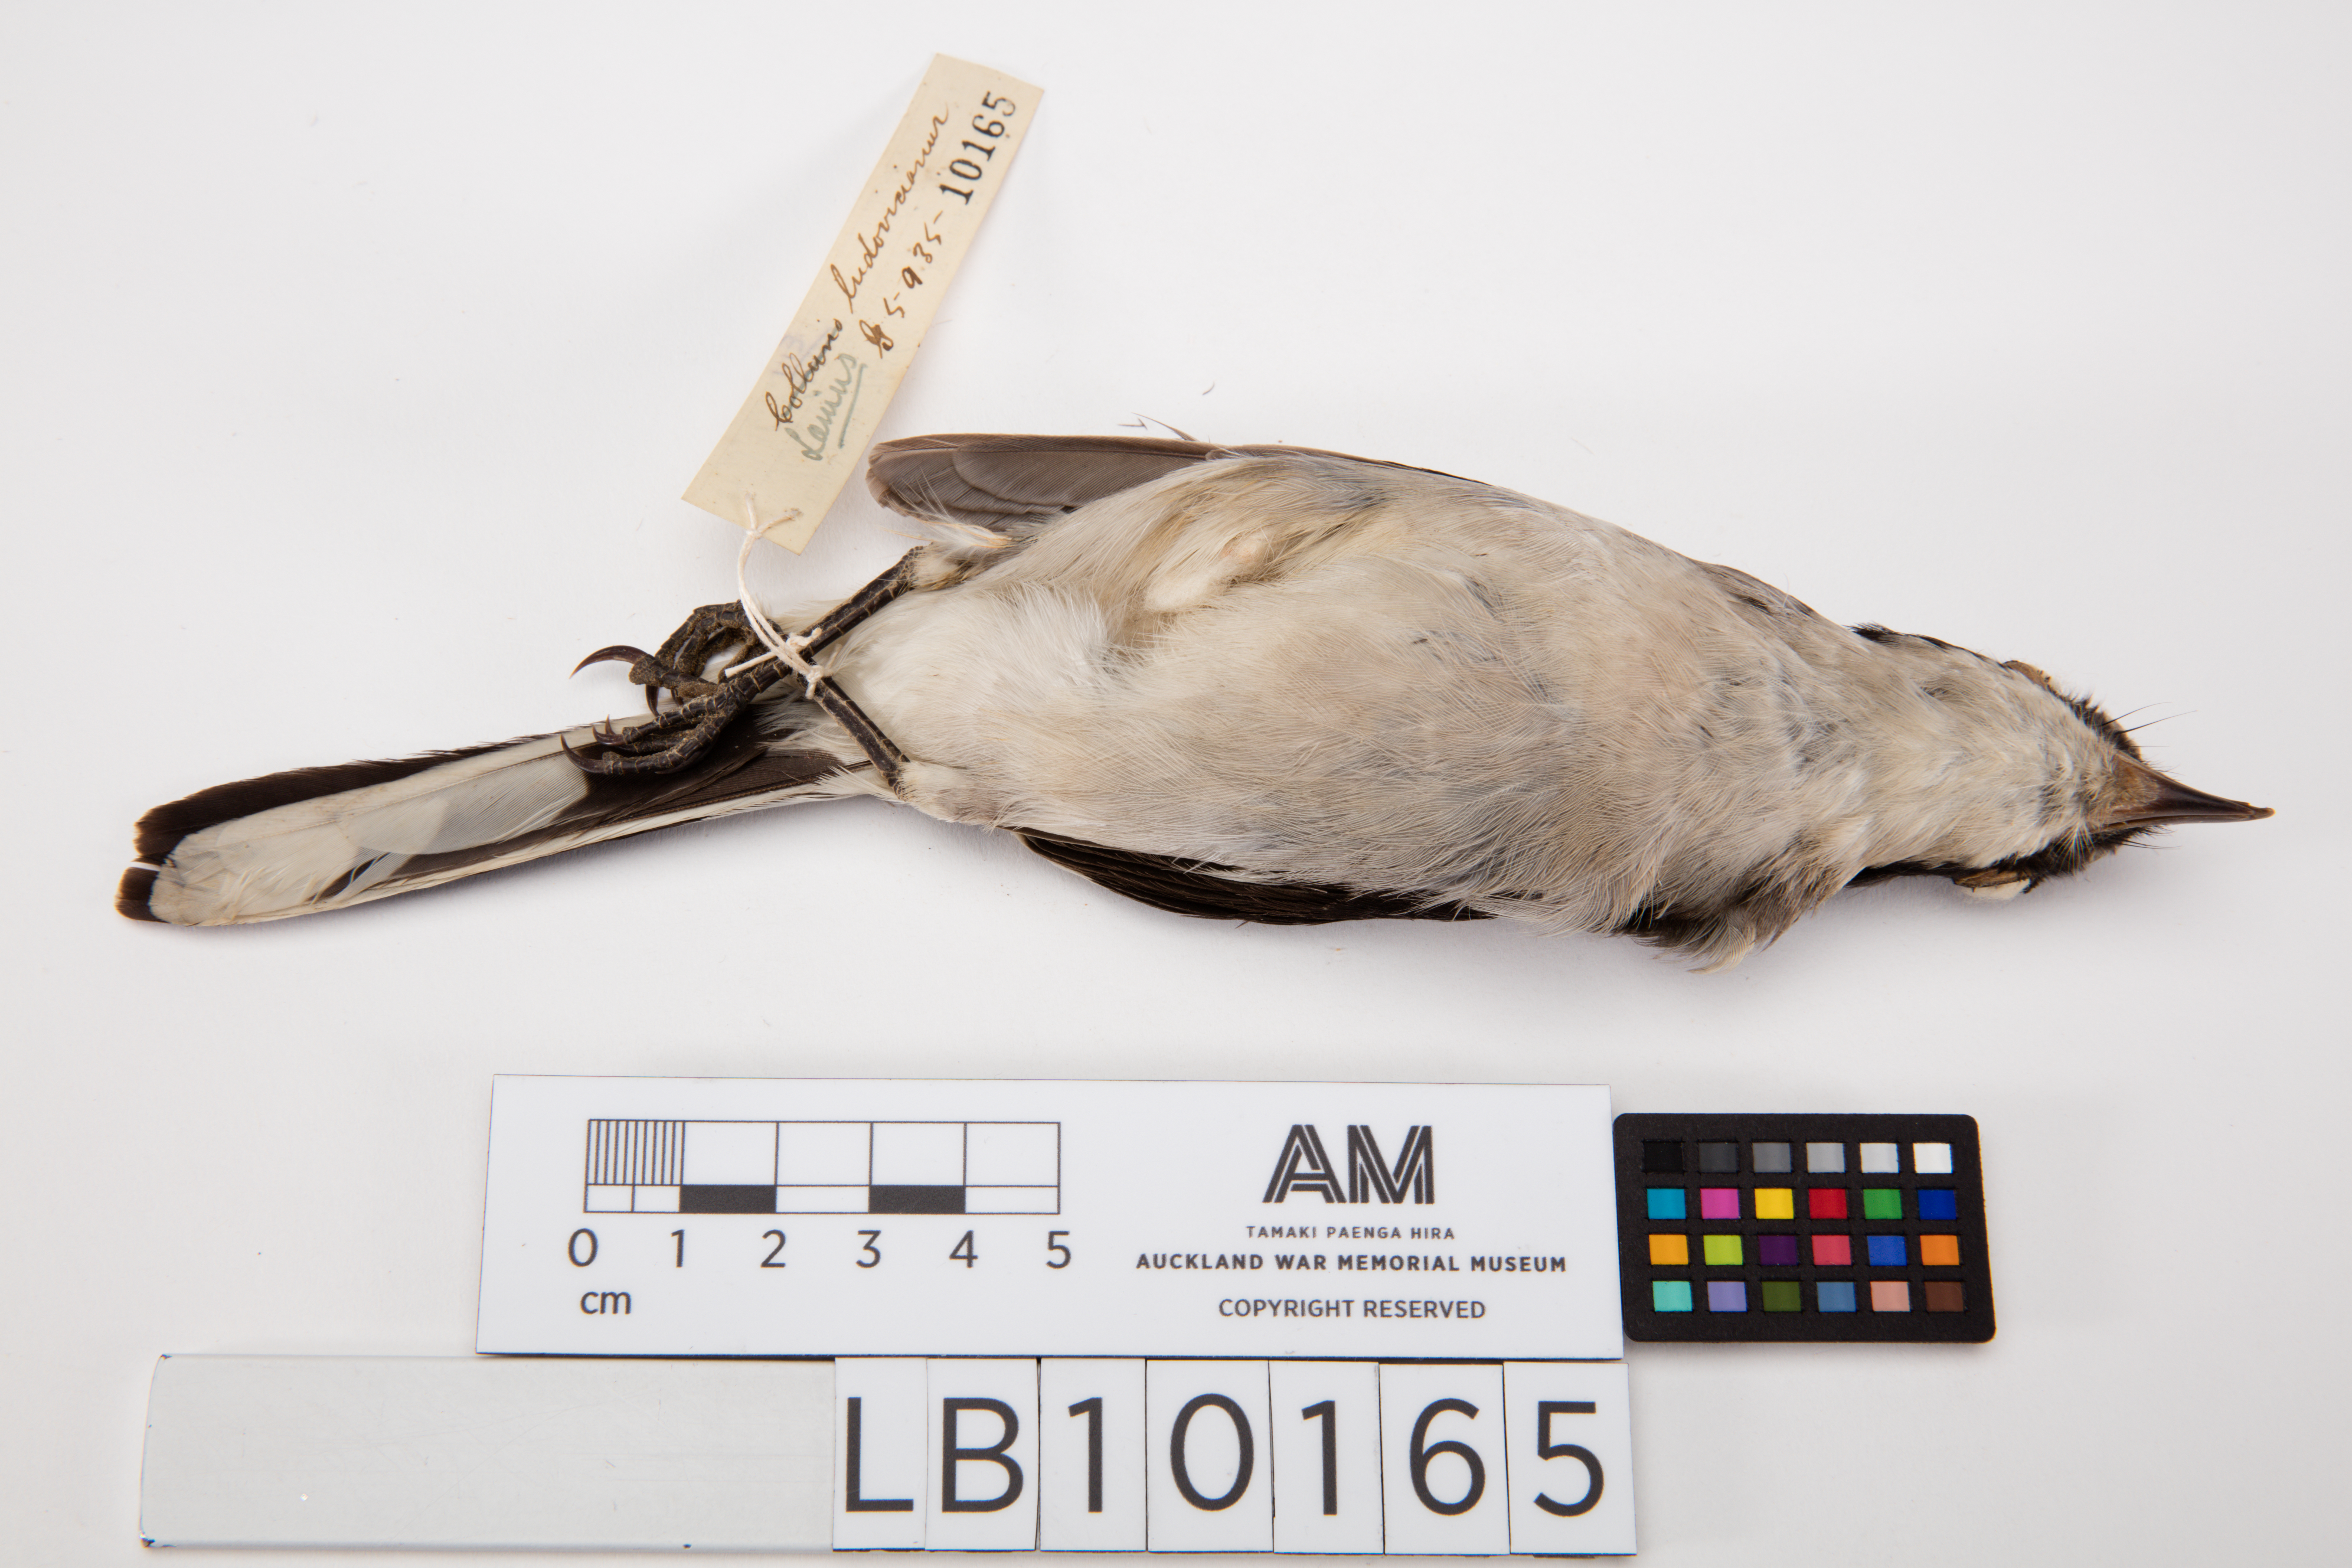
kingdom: Animalia
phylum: Chordata
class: Aves
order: Passeriformes
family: Laniidae
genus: Lanius
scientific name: Lanius ludovicianus
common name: Loggerhead shrike
